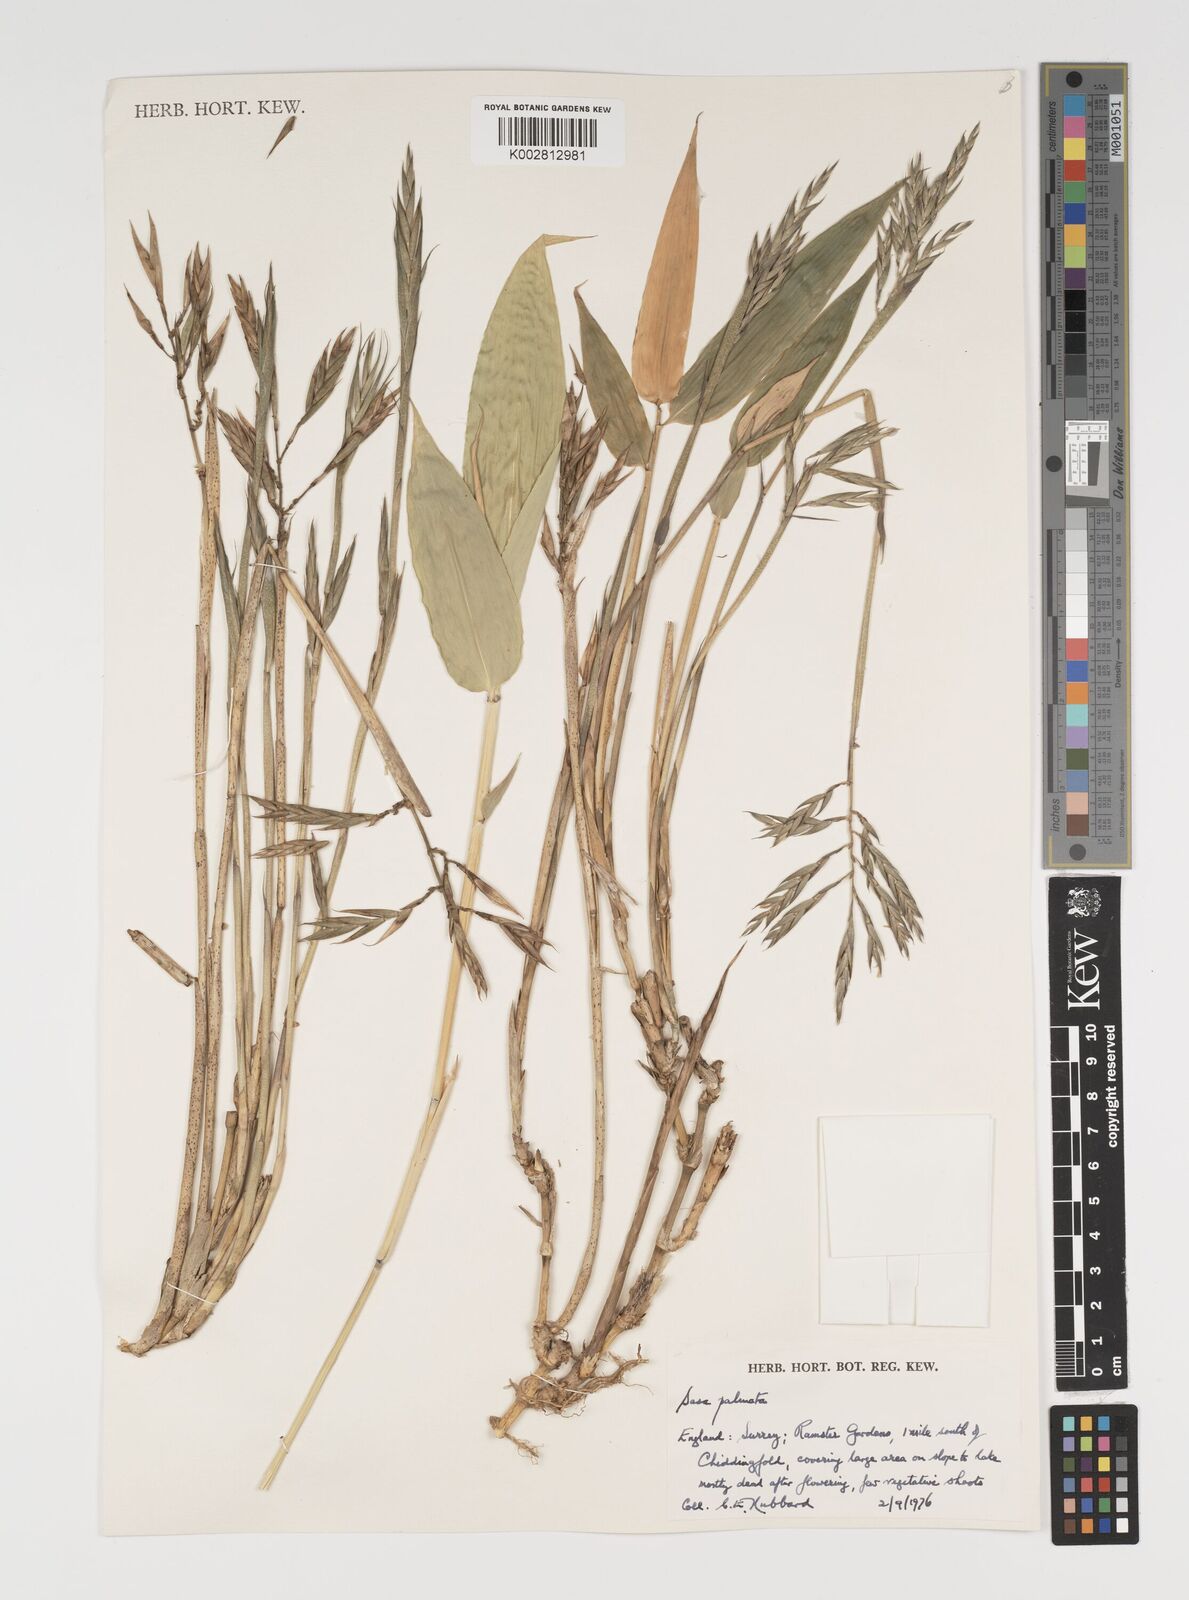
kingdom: Plantae
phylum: Tracheophyta
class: Liliopsida
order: Poales
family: Poaceae
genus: Sasa
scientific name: Sasa palmata
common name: Broad-leaved bamboo
